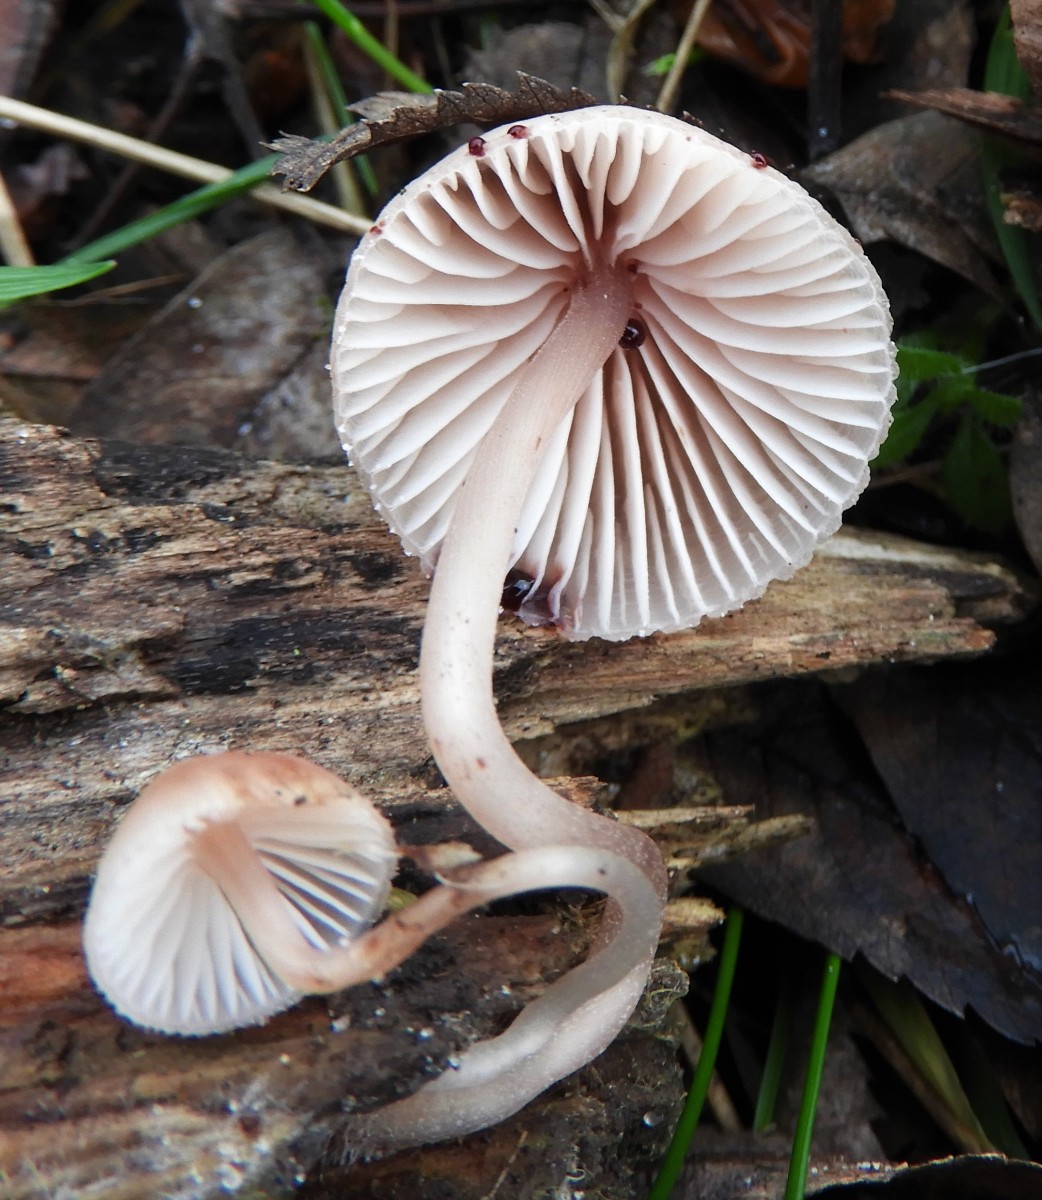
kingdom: Fungi
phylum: Basidiomycota
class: Agaricomycetes
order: Agaricales
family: Mycenaceae
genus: Mycena
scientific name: Mycena haematopus
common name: blødende huesvamp
